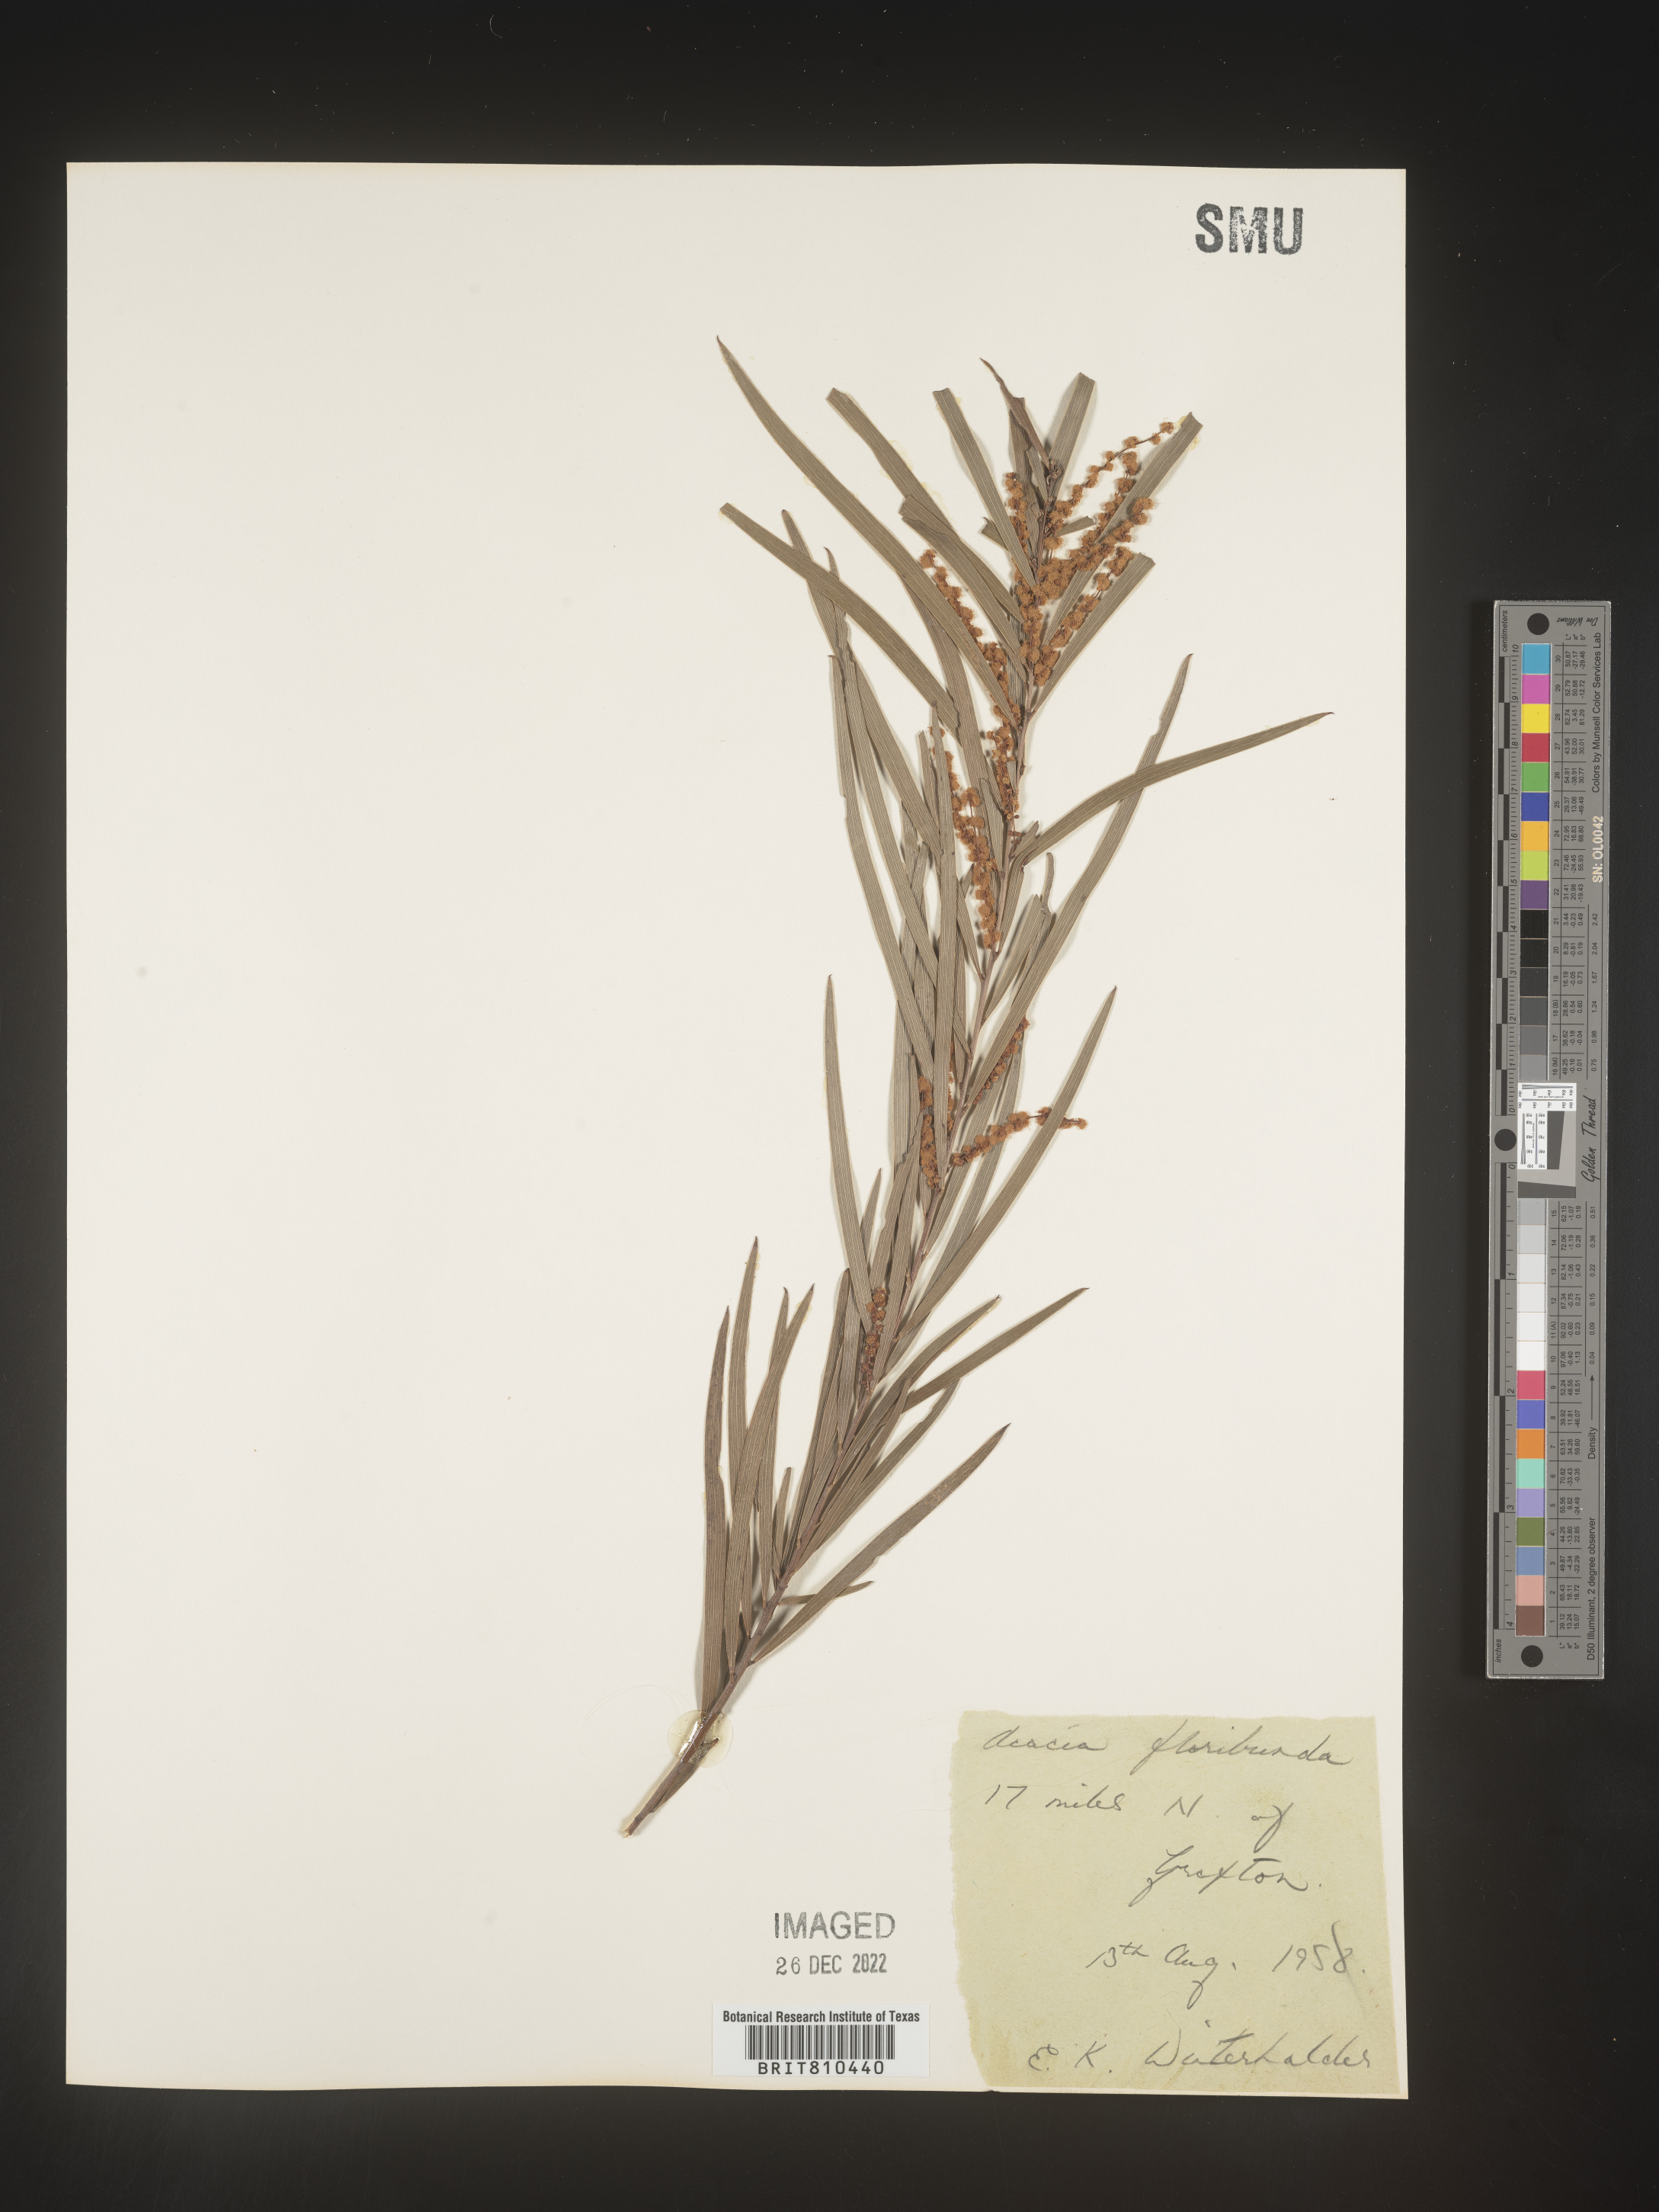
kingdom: Plantae
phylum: Tracheophyta
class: Magnoliopsida
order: Fabales
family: Fabaceae
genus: Acacia
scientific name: Acacia
